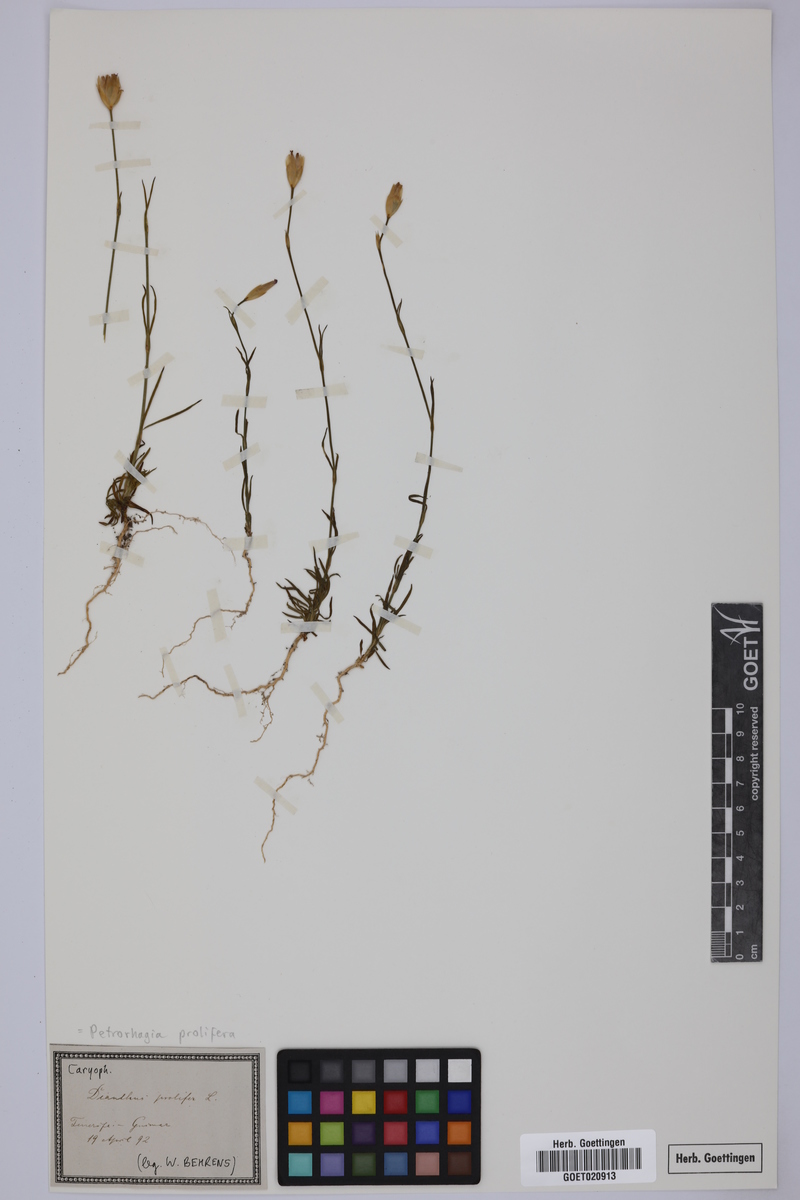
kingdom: Plantae
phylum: Tracheophyta
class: Magnoliopsida
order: Caryophyllales
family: Caryophyllaceae
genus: Petrorhagia
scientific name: Petrorhagia prolifera
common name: Proliferous pink
